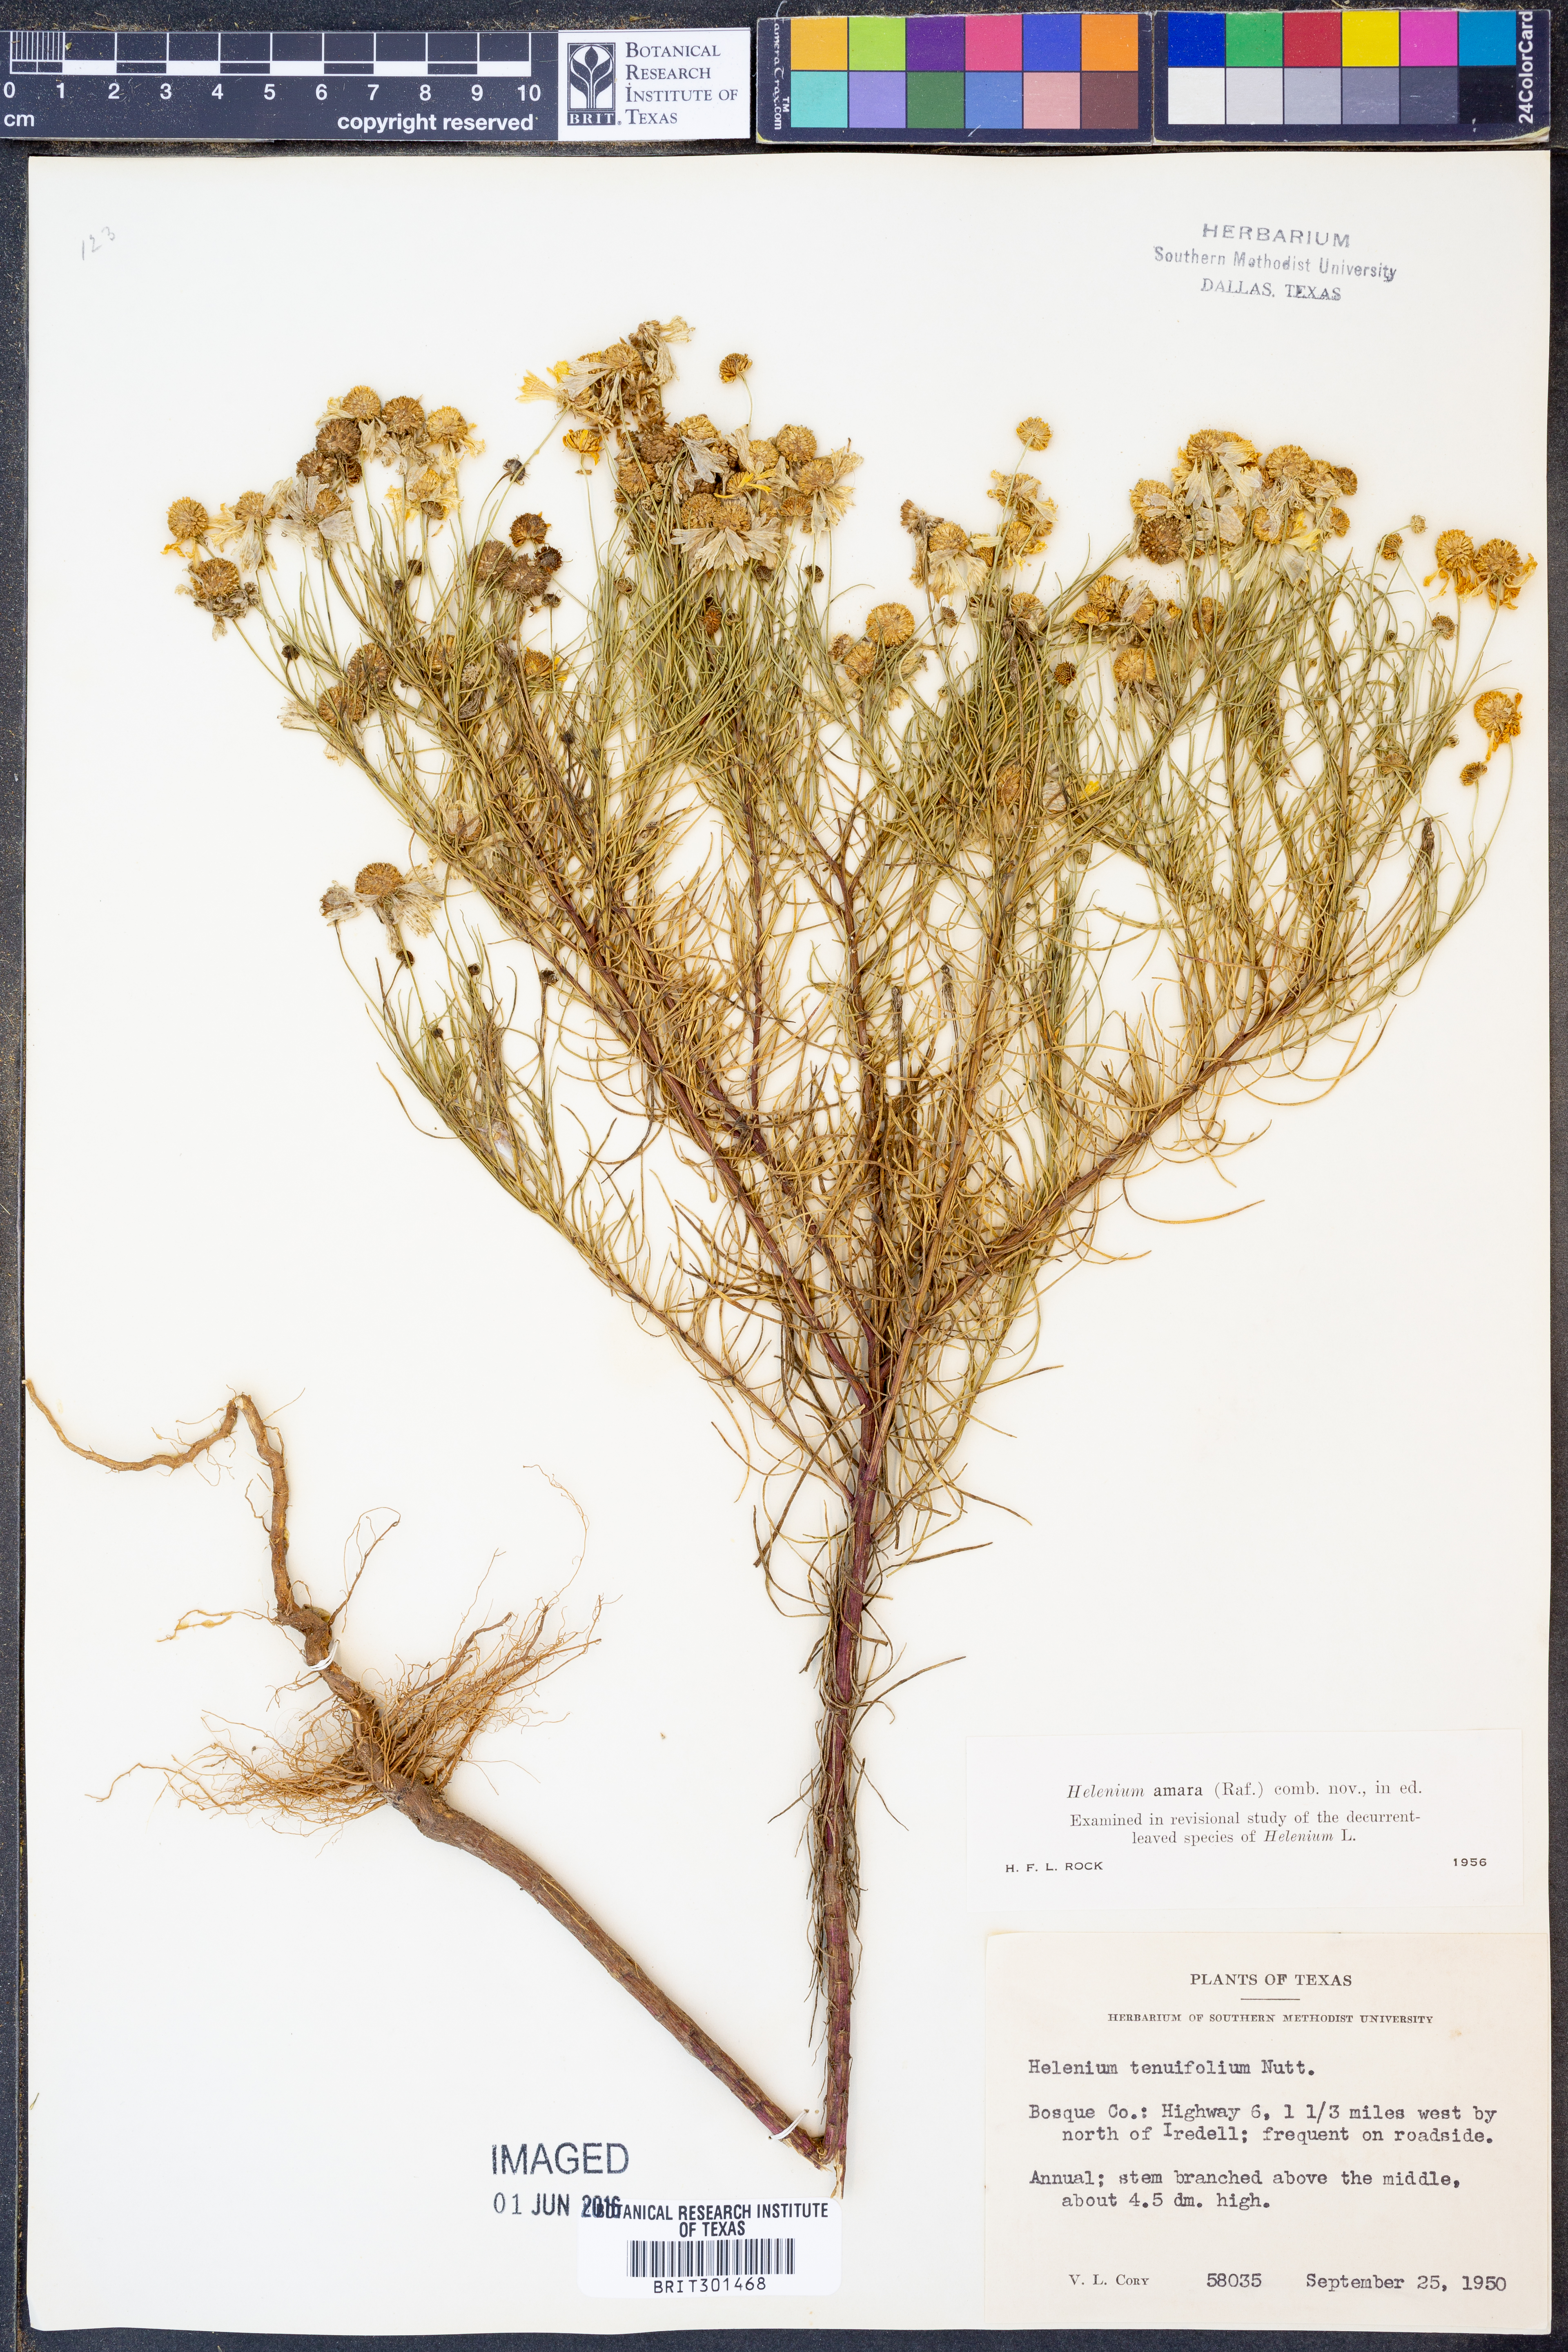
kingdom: Plantae
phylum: Tracheophyta
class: Magnoliopsida
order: Asterales
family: Asteraceae
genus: Helenium
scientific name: Helenium amarum
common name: Bitter sneezeweed
